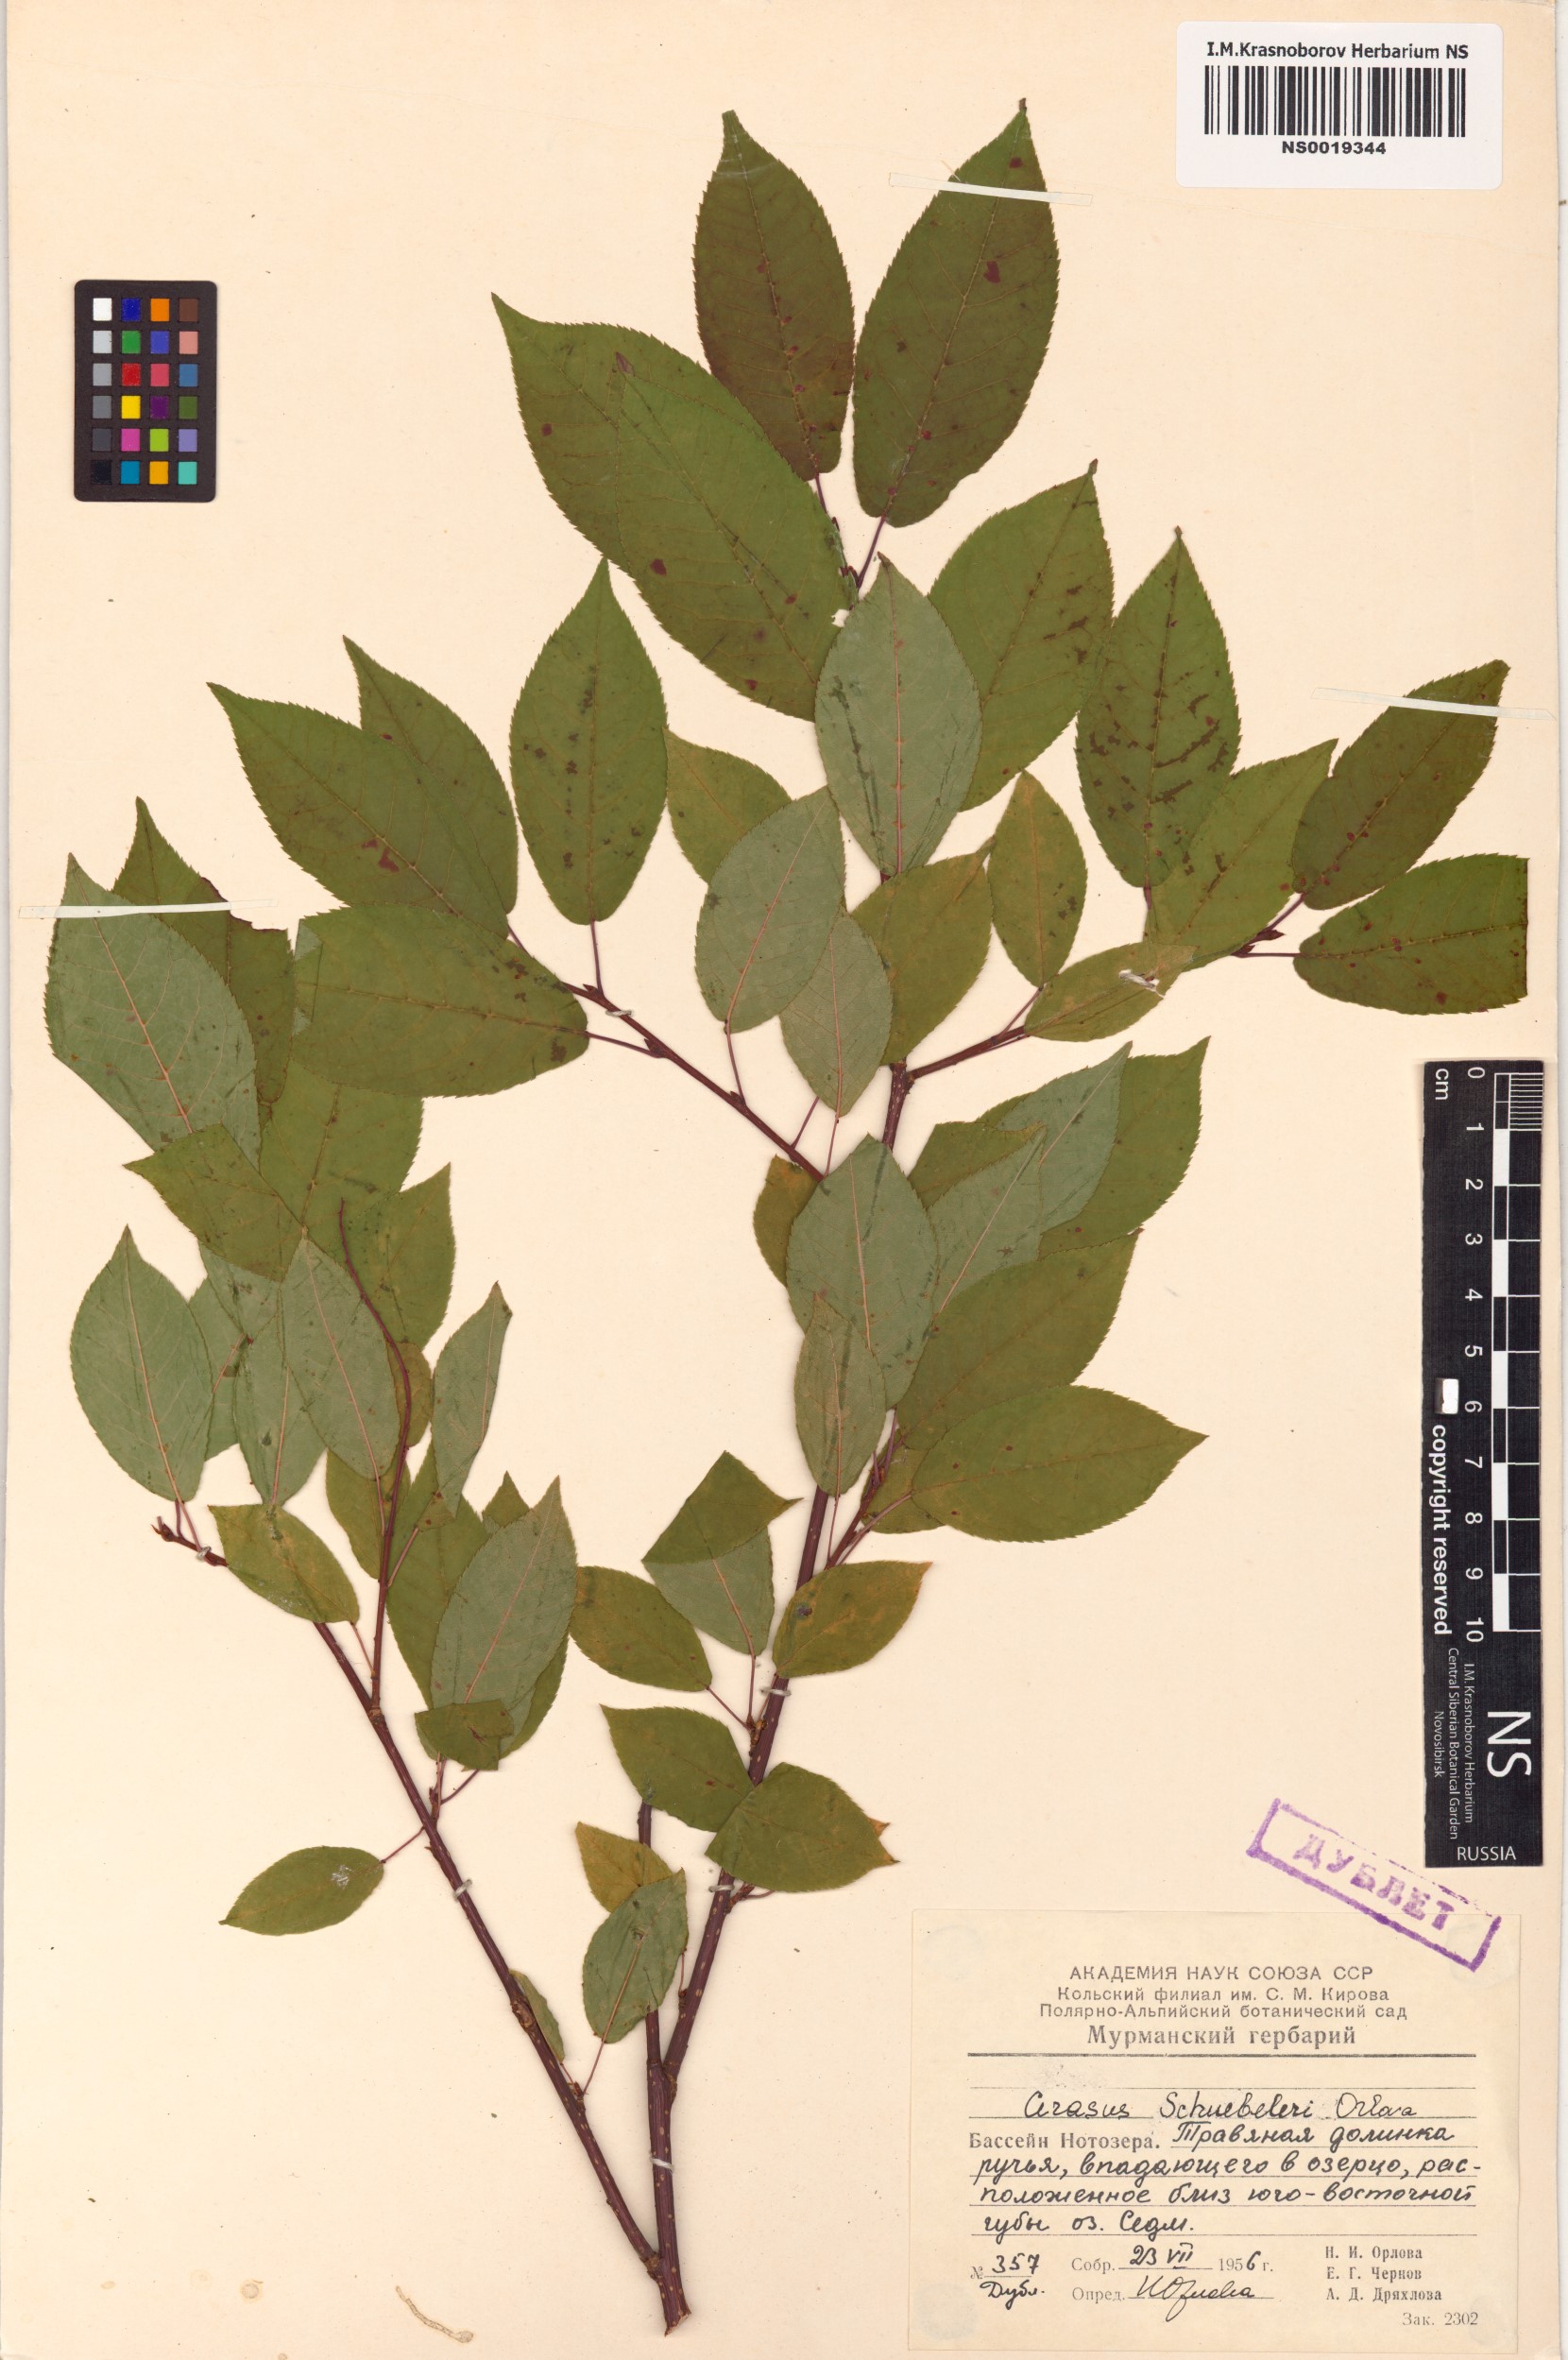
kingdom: Plantae
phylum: Tracheophyta
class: Magnoliopsida
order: Rosales
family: Rosaceae
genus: Prunus
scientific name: Prunus padus
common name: Bird cherry
